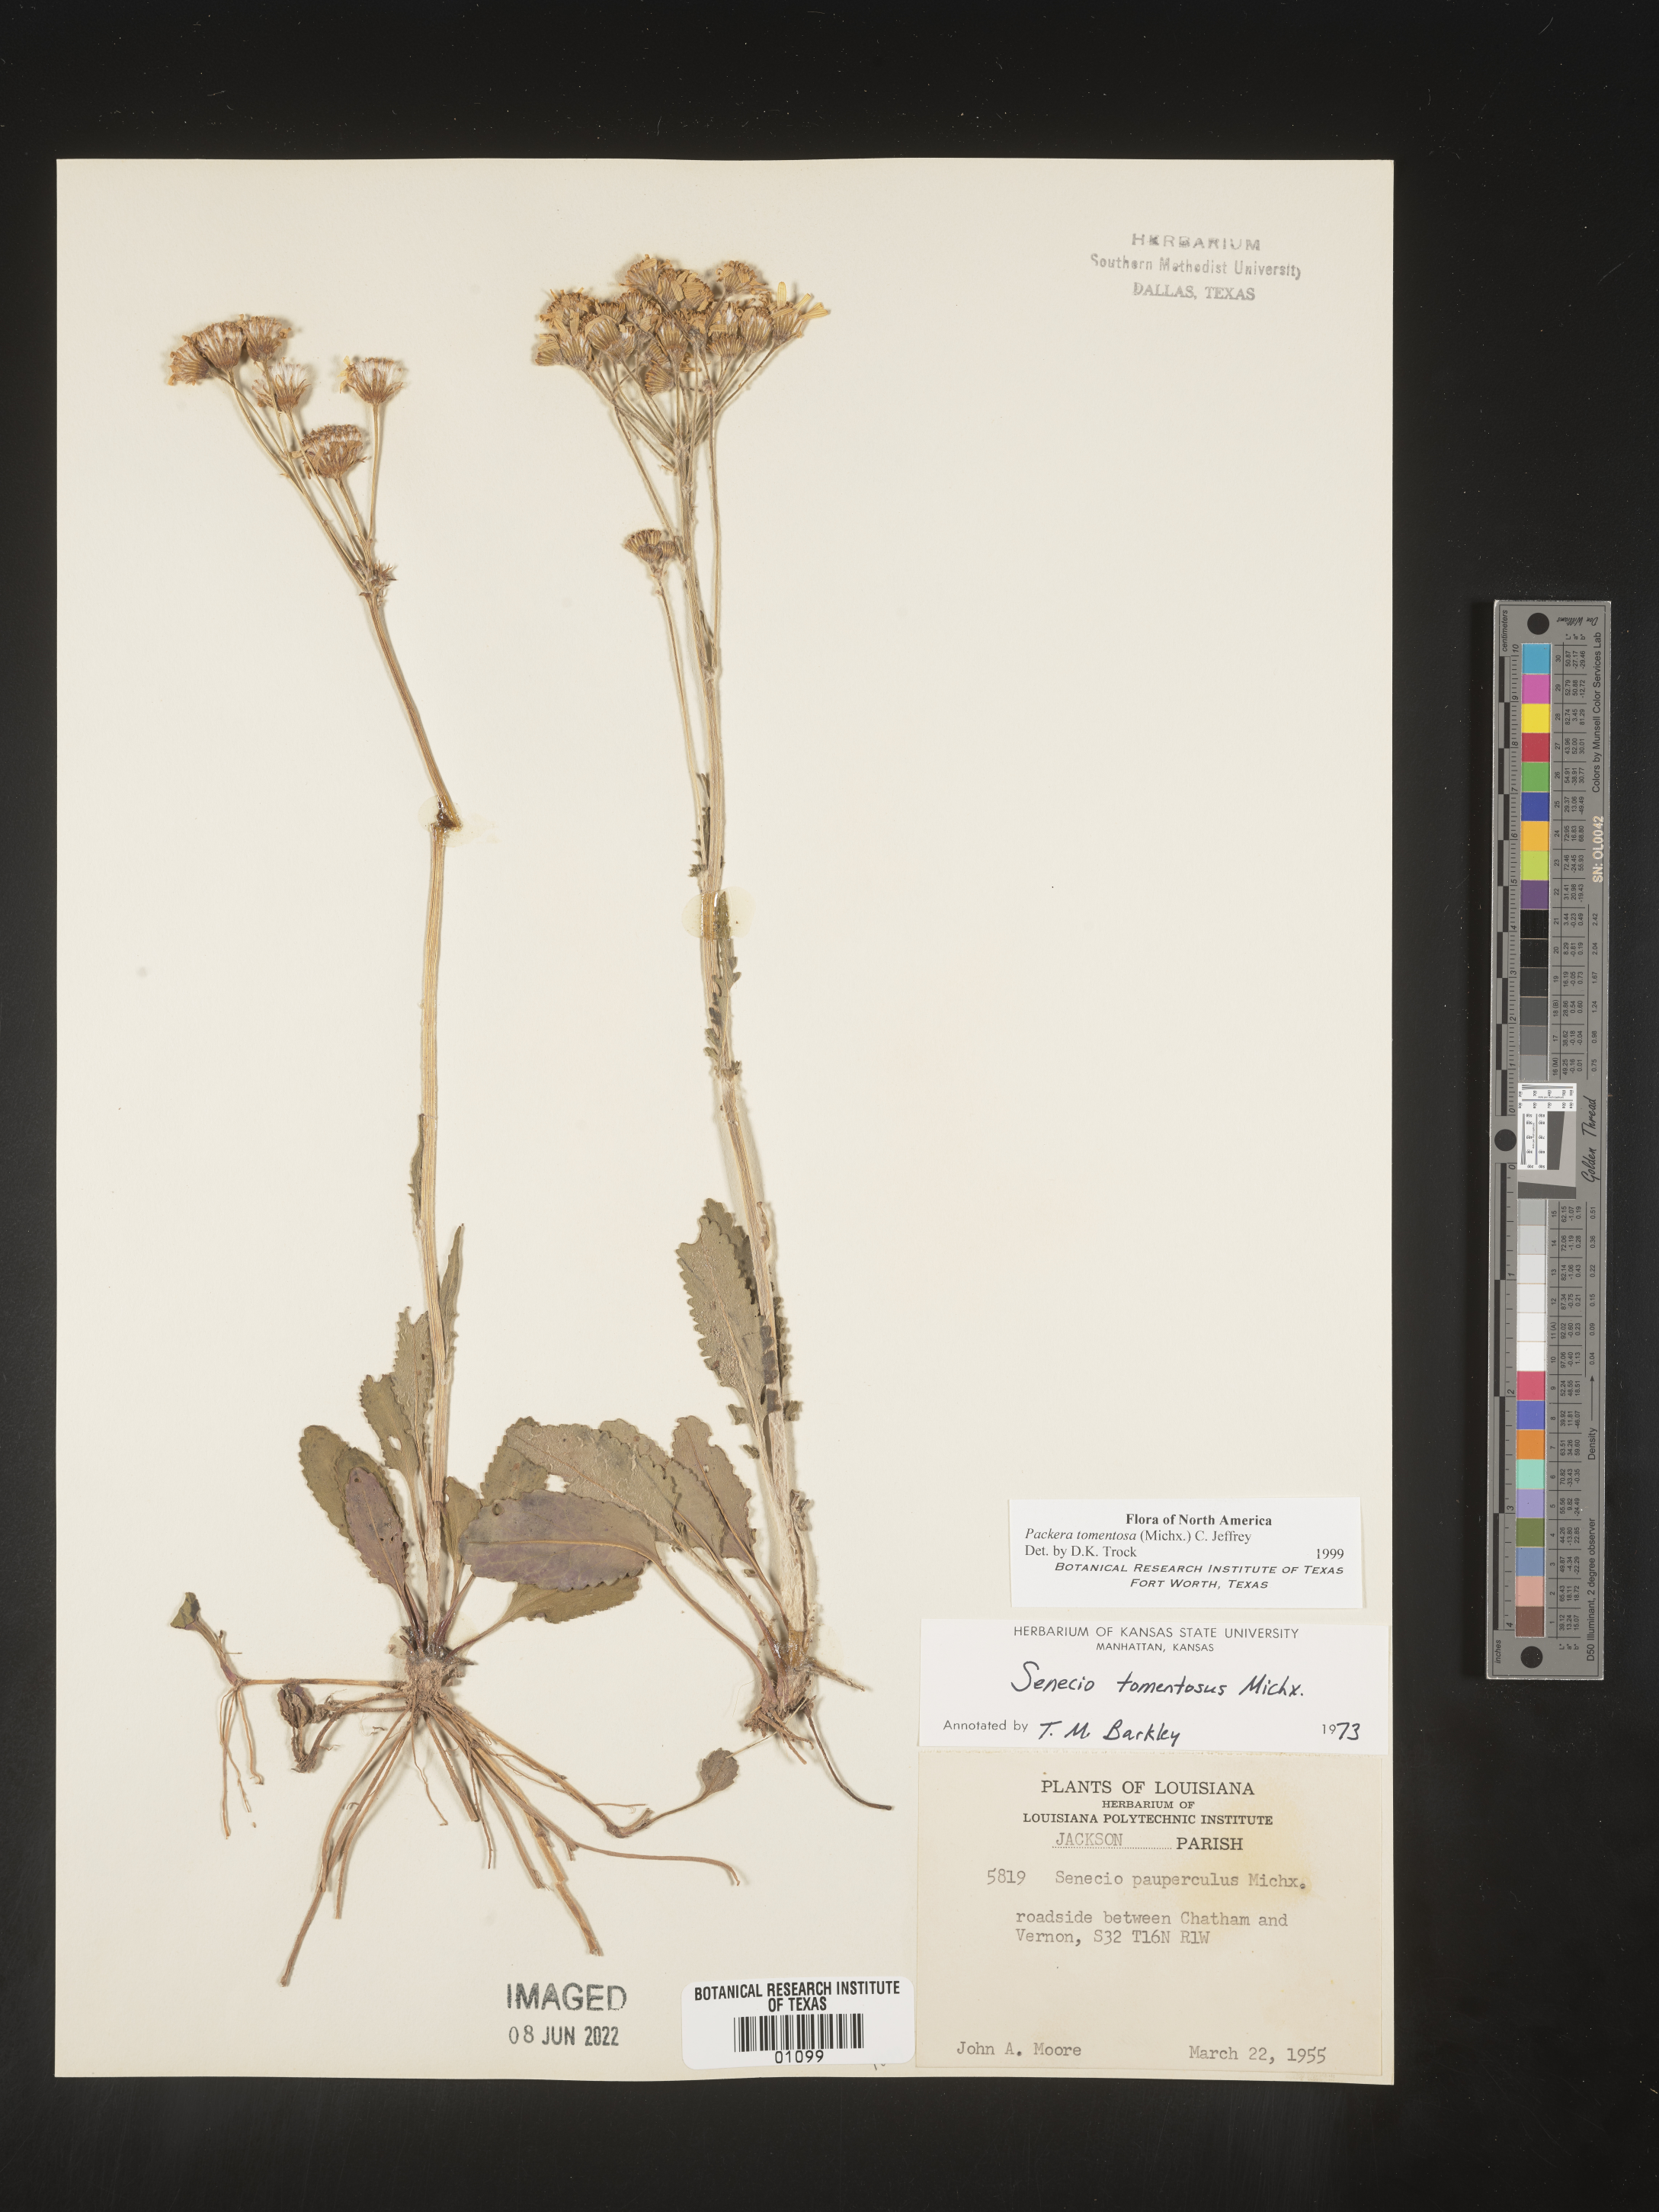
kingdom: Plantae
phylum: Tracheophyta
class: Magnoliopsida
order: Asterales
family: Asteraceae
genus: Packera
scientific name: Packera dubia
